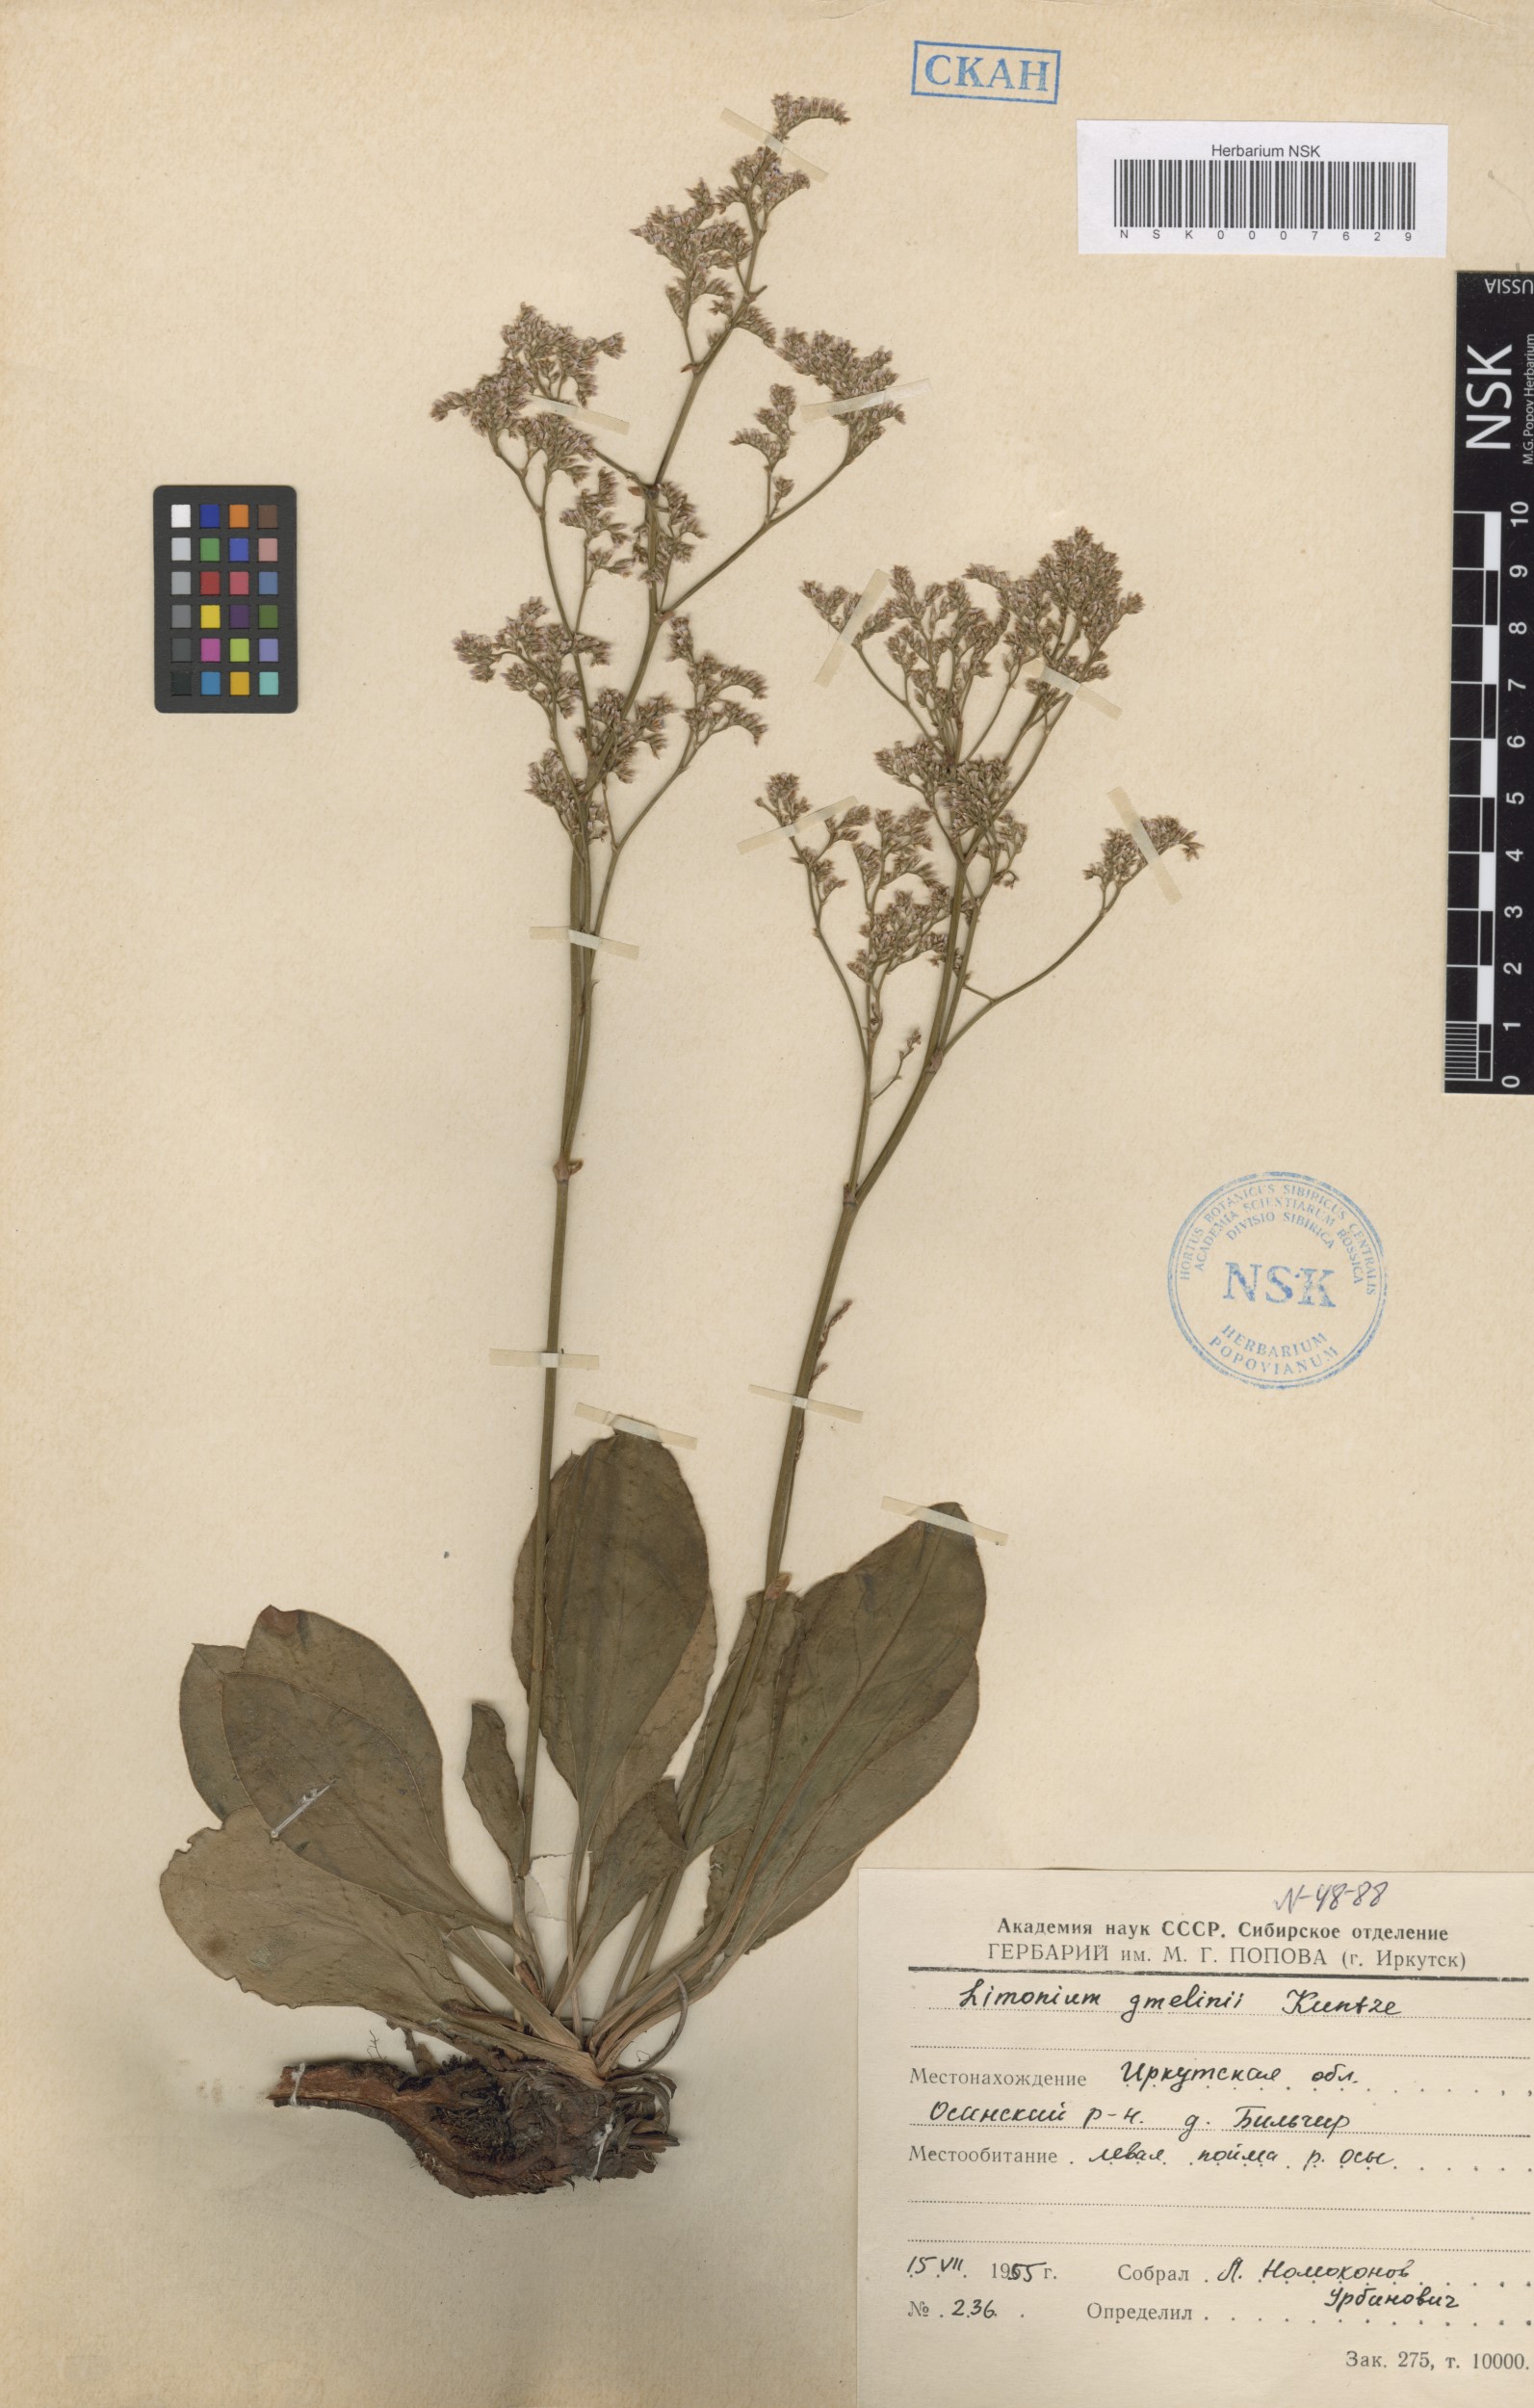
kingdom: Plantae
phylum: Tracheophyta
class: Magnoliopsida
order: Caryophyllales
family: Plumbaginaceae
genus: Limonium
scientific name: Limonium gmelini
